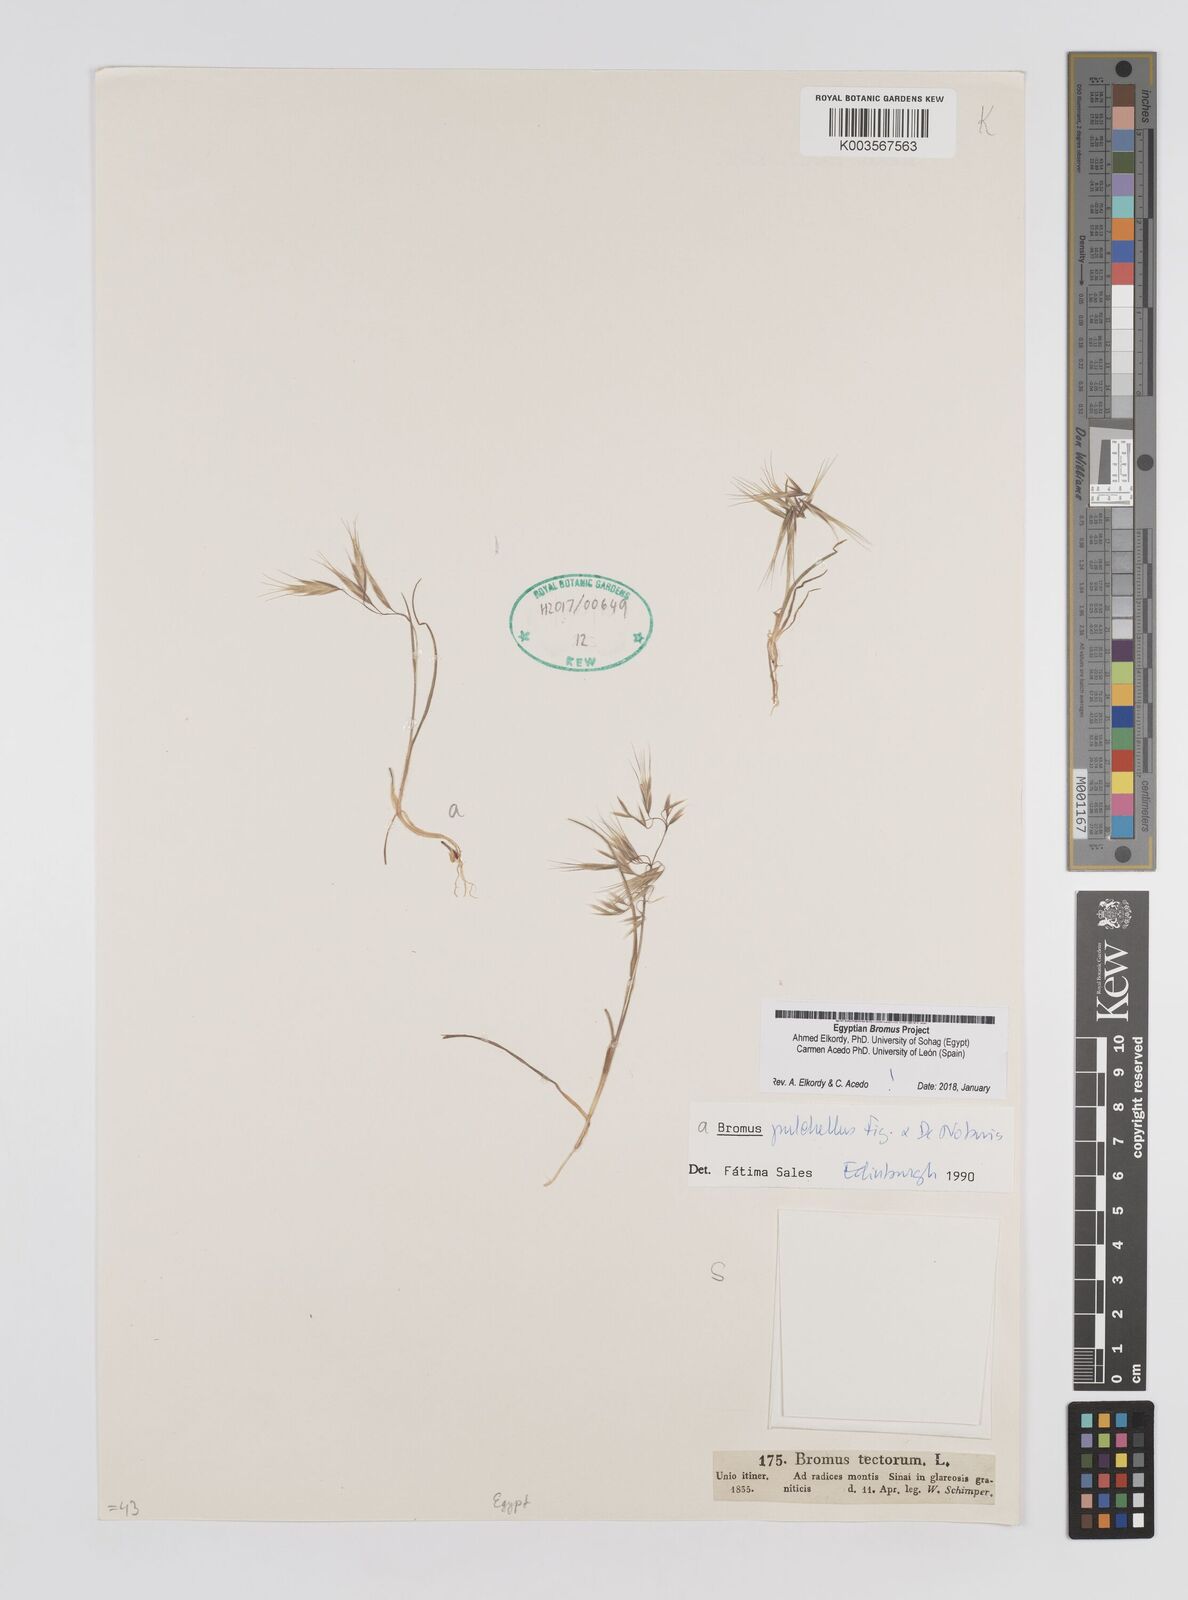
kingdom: Plantae
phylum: Tracheophyta
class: Liliopsida
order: Poales
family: Poaceae
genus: Bromus
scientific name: Bromus pectinatus
